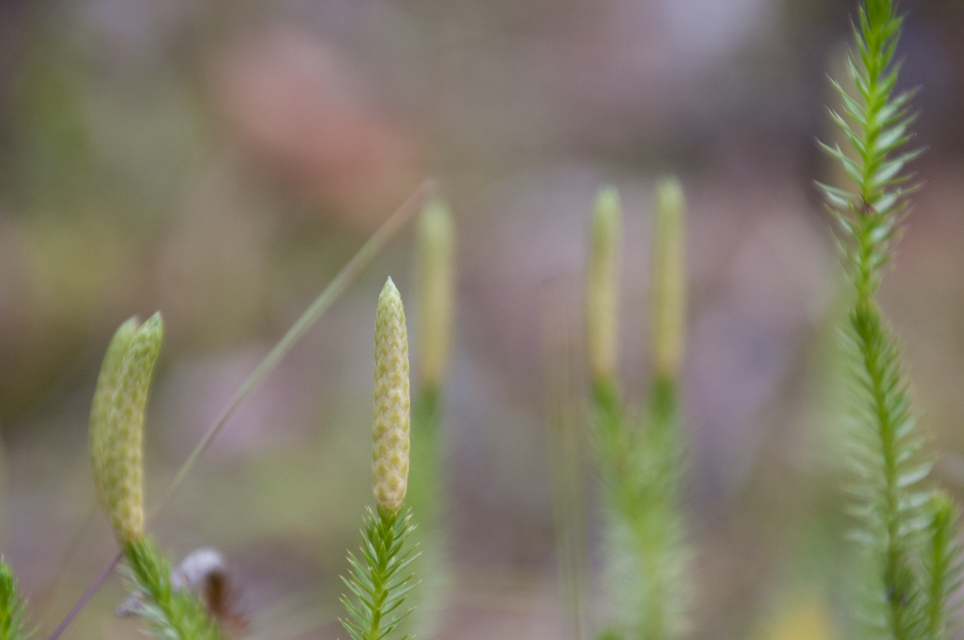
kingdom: Plantae
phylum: Tracheophyta
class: Lycopodiopsida
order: Lycopodiales
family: Lycopodiaceae
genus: Spinulum
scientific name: Spinulum annotinum
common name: Interrupted club-moss
